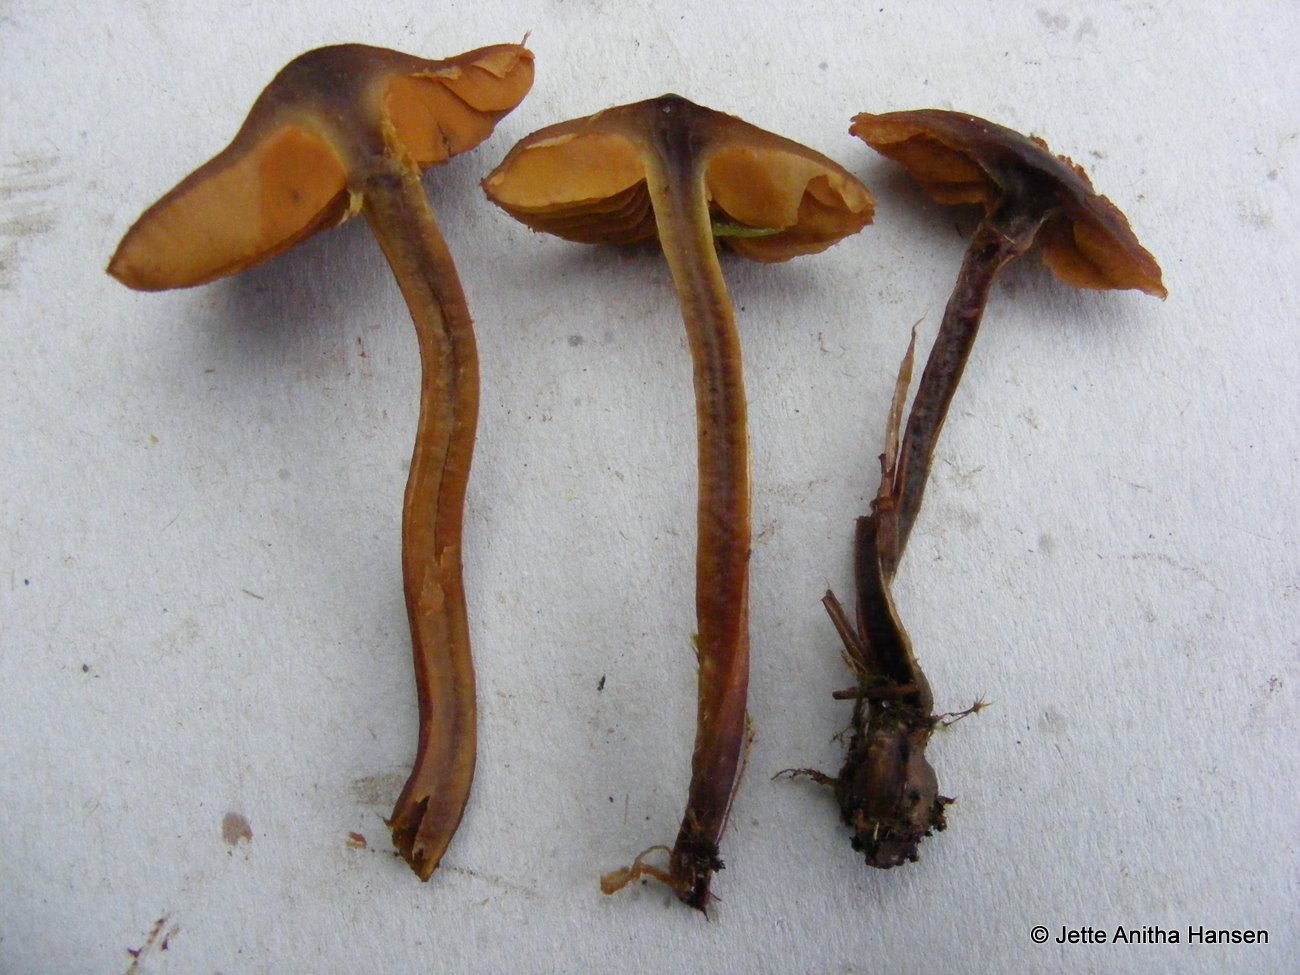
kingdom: Fungi
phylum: Basidiomycota
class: Agaricomycetes
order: Agaricales
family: Cortinariaceae
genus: Cortinarius
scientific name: Cortinarius cinnamomeus
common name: kanel-slørhat
